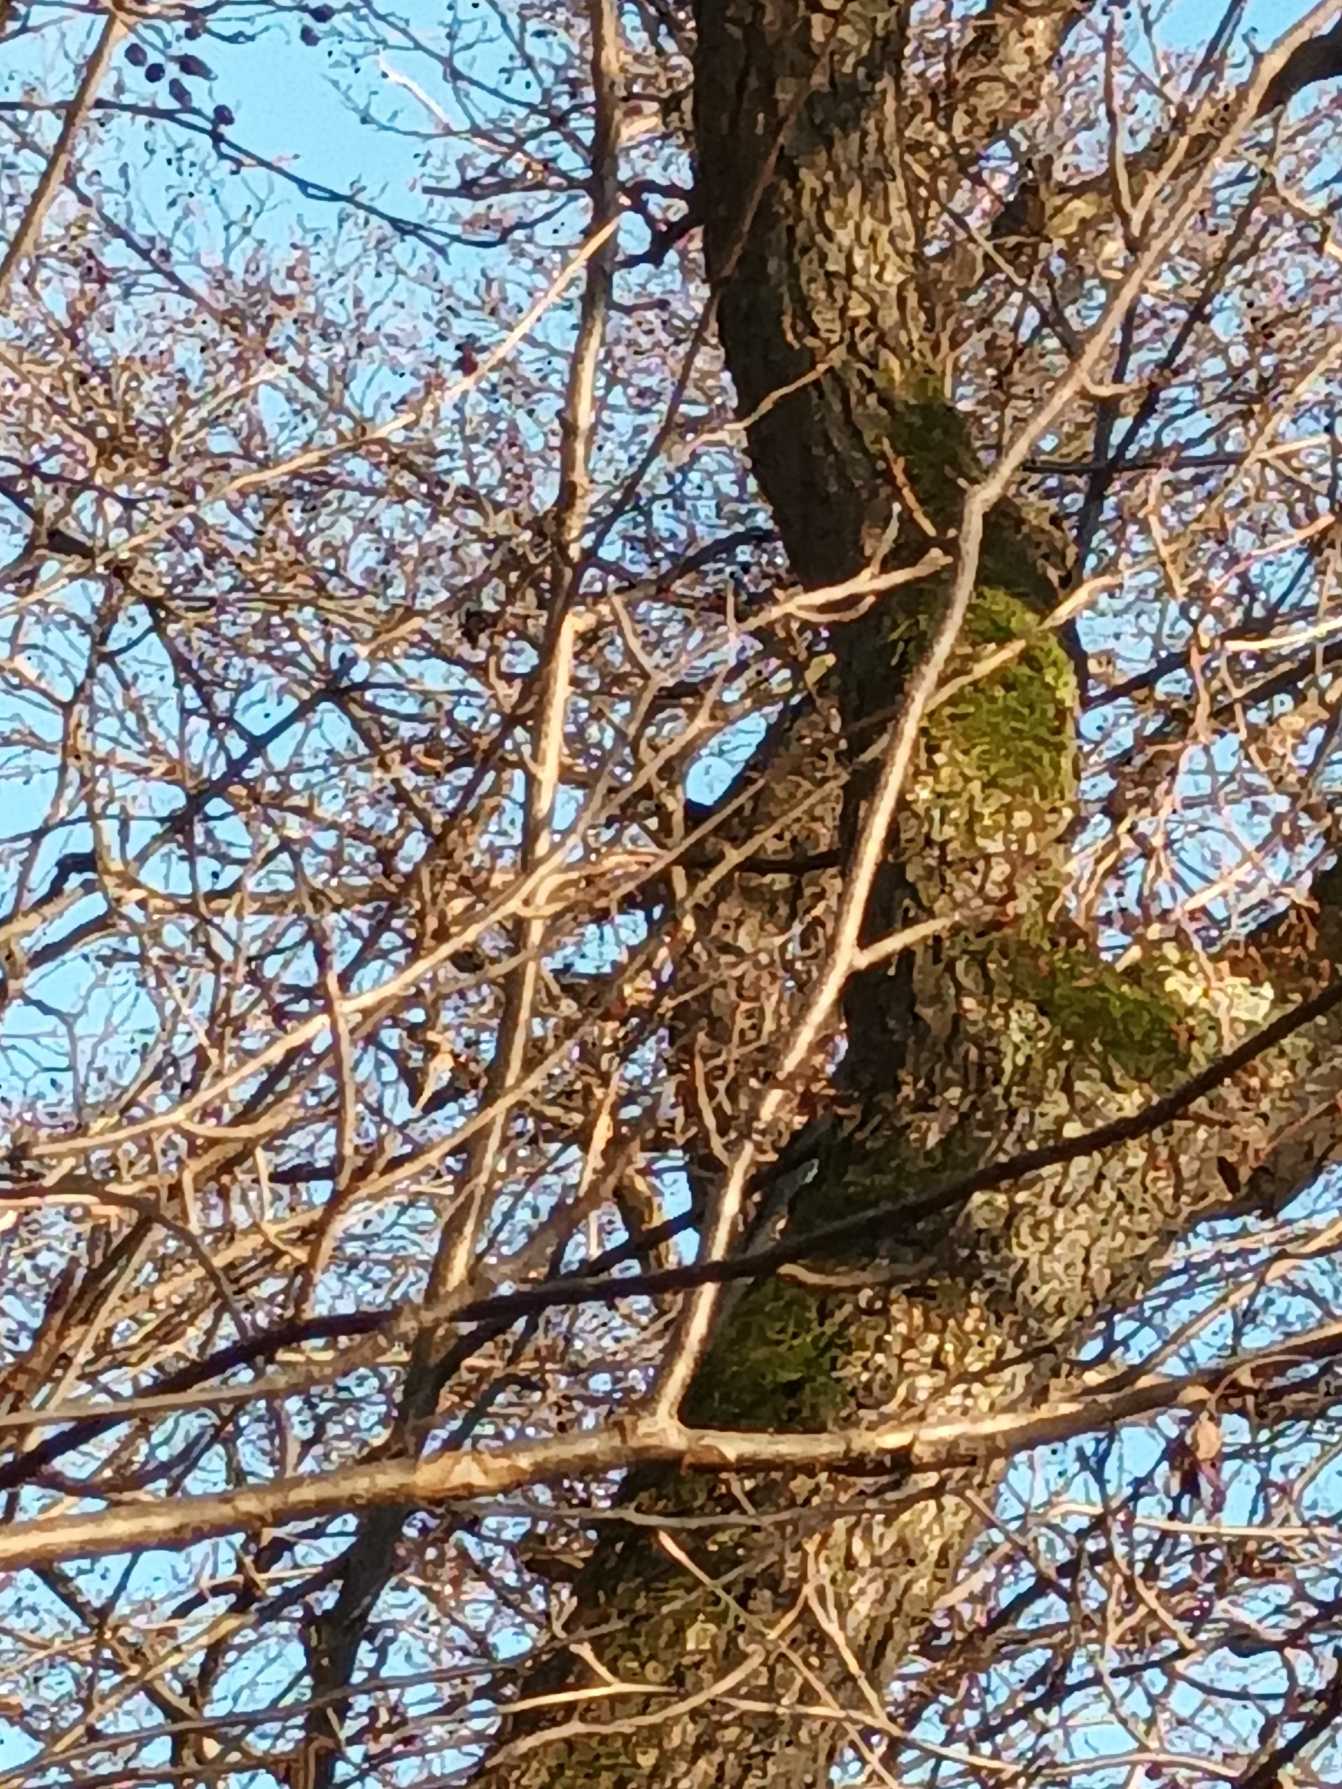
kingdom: Animalia
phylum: Chordata
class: Aves
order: Passeriformes
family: Certhiidae
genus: Certhia
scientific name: Certhia
